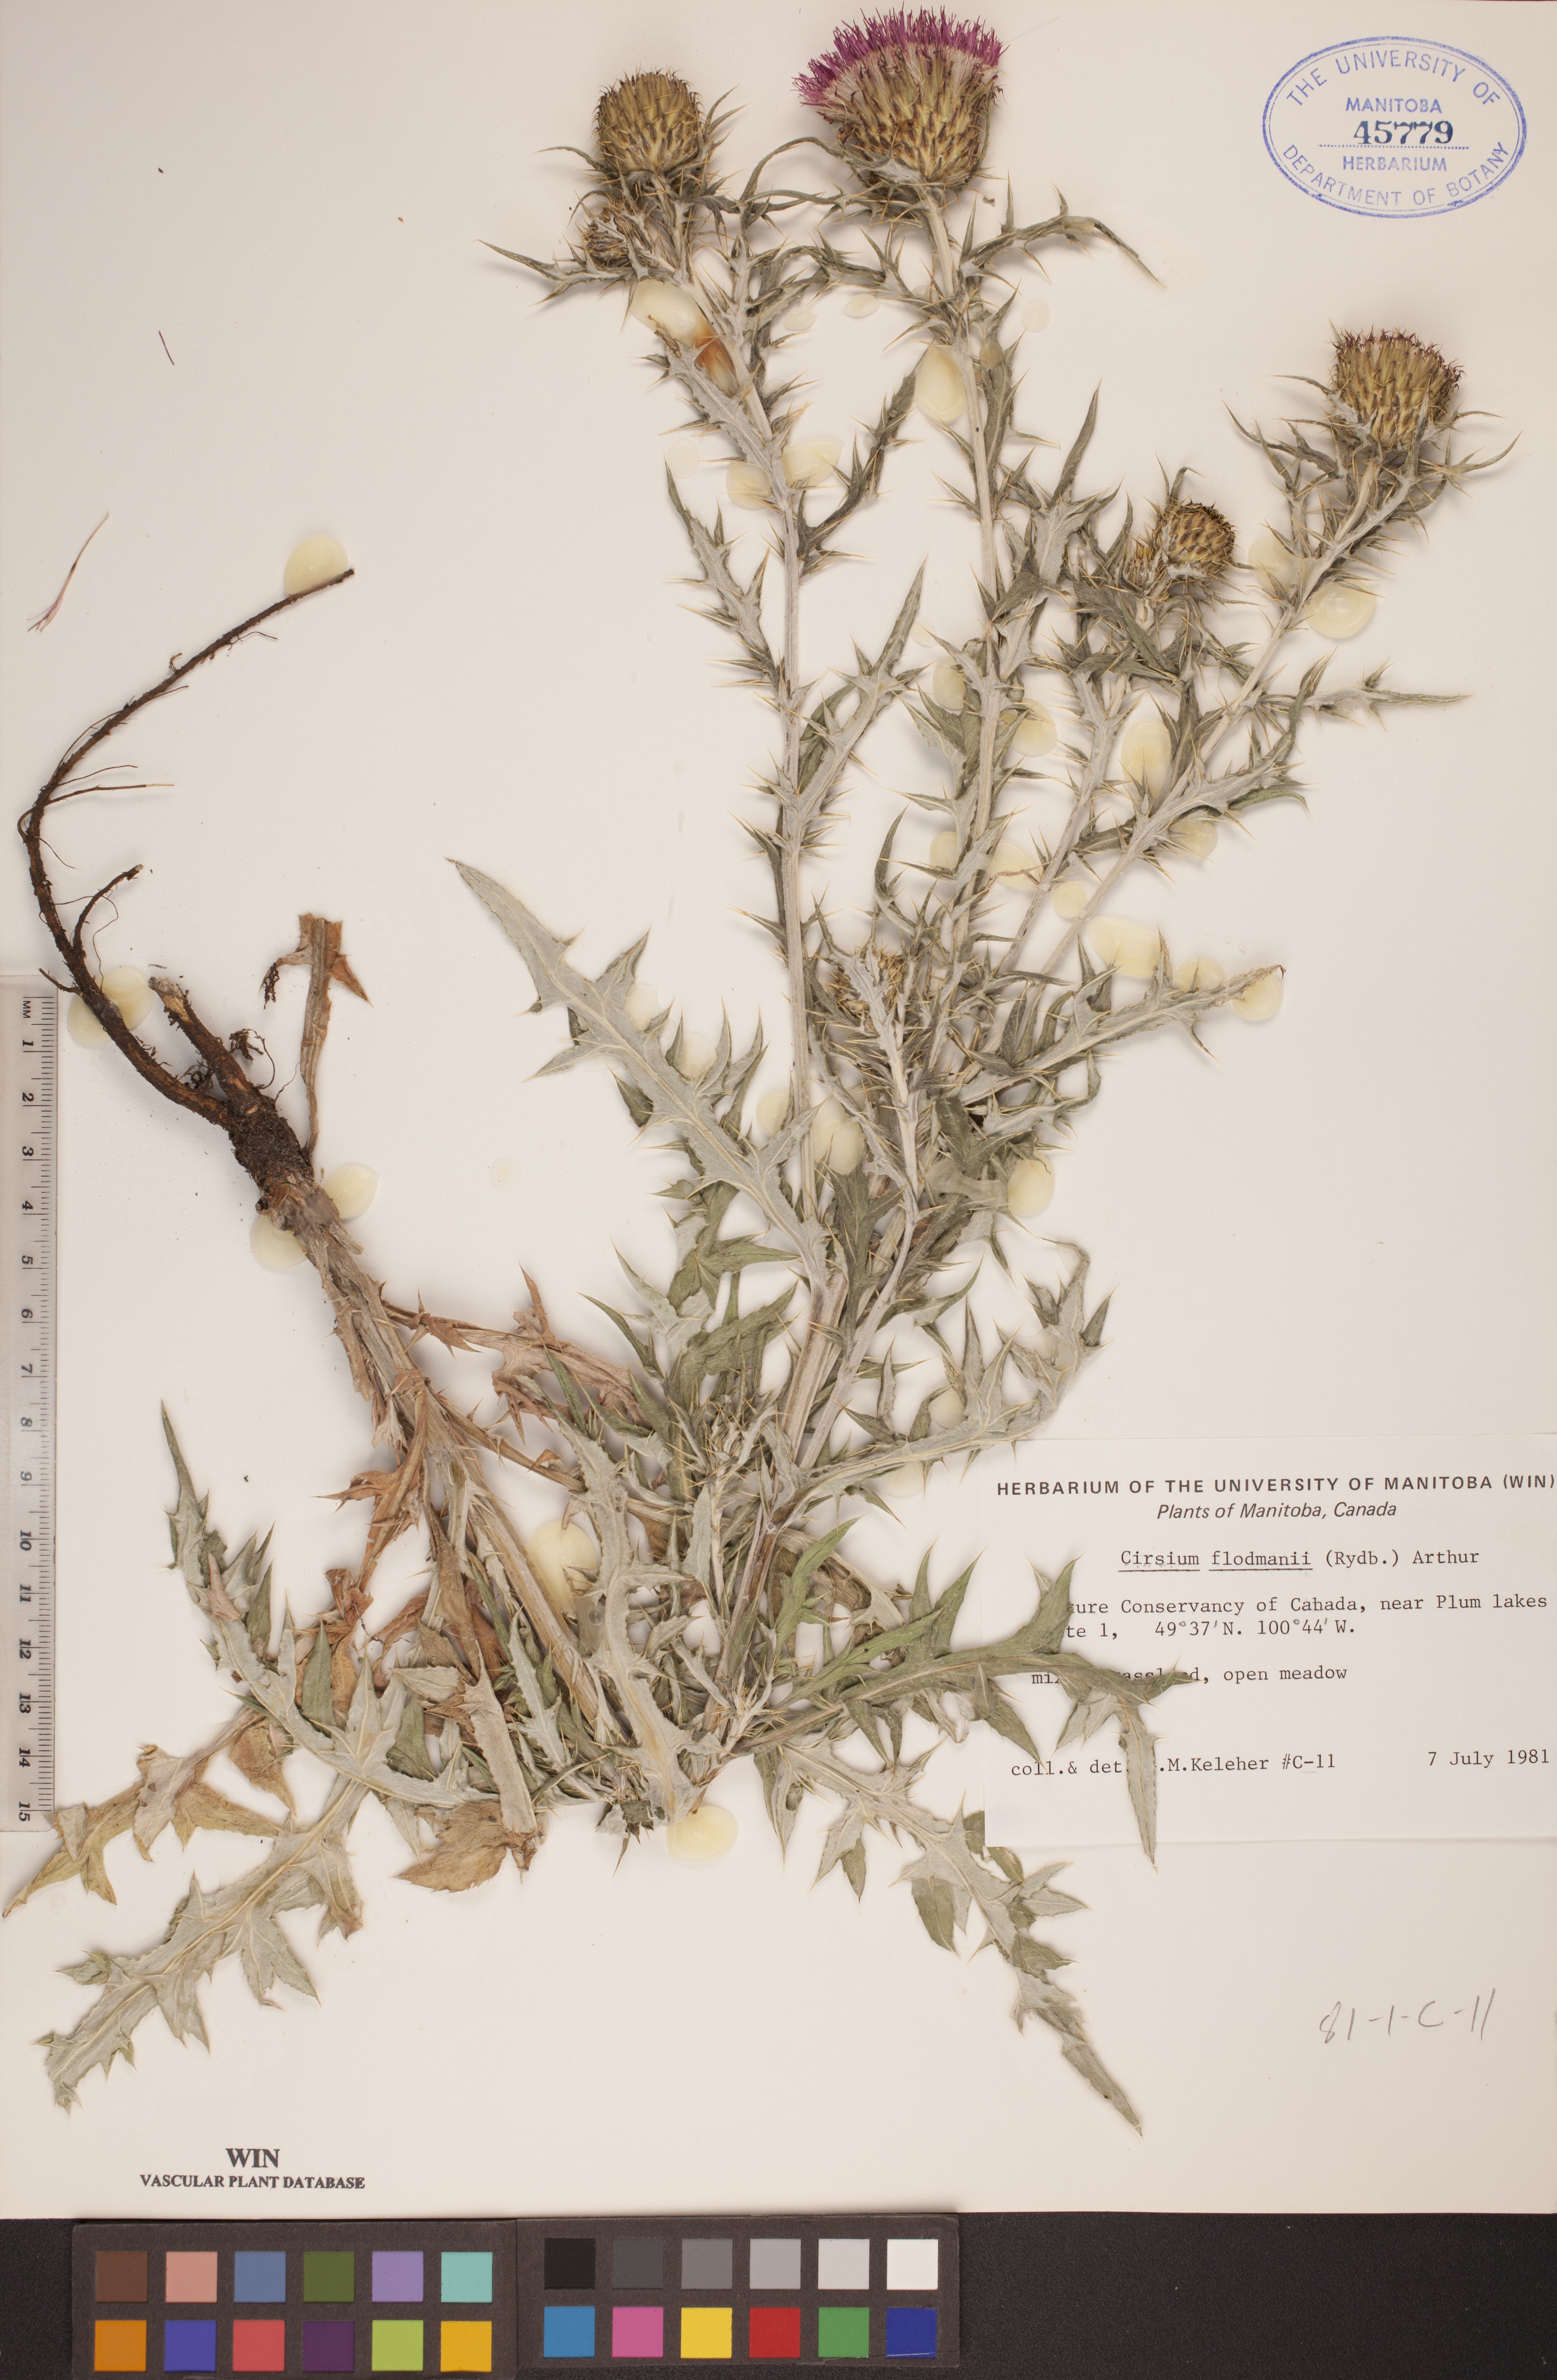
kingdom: Plantae
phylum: Tracheophyta
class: Magnoliopsida
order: Asterales
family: Asteraceae
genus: Cirsium
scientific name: Cirsium flodmanii
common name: Flodman's thistle
